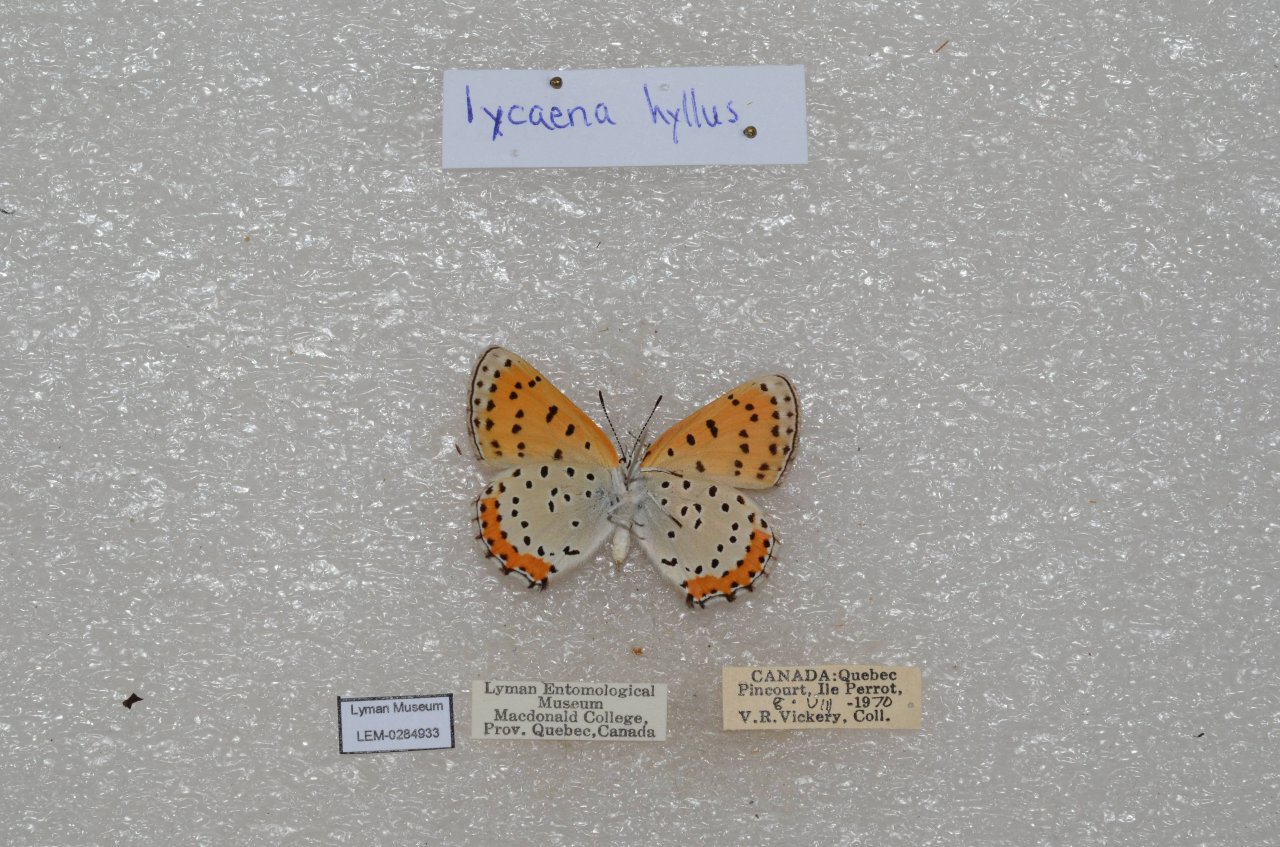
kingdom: Animalia
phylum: Arthropoda
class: Insecta
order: Lepidoptera
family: Sesiidae
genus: Sesia
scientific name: Sesia Lycaena hyllus
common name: Bronze Copper
